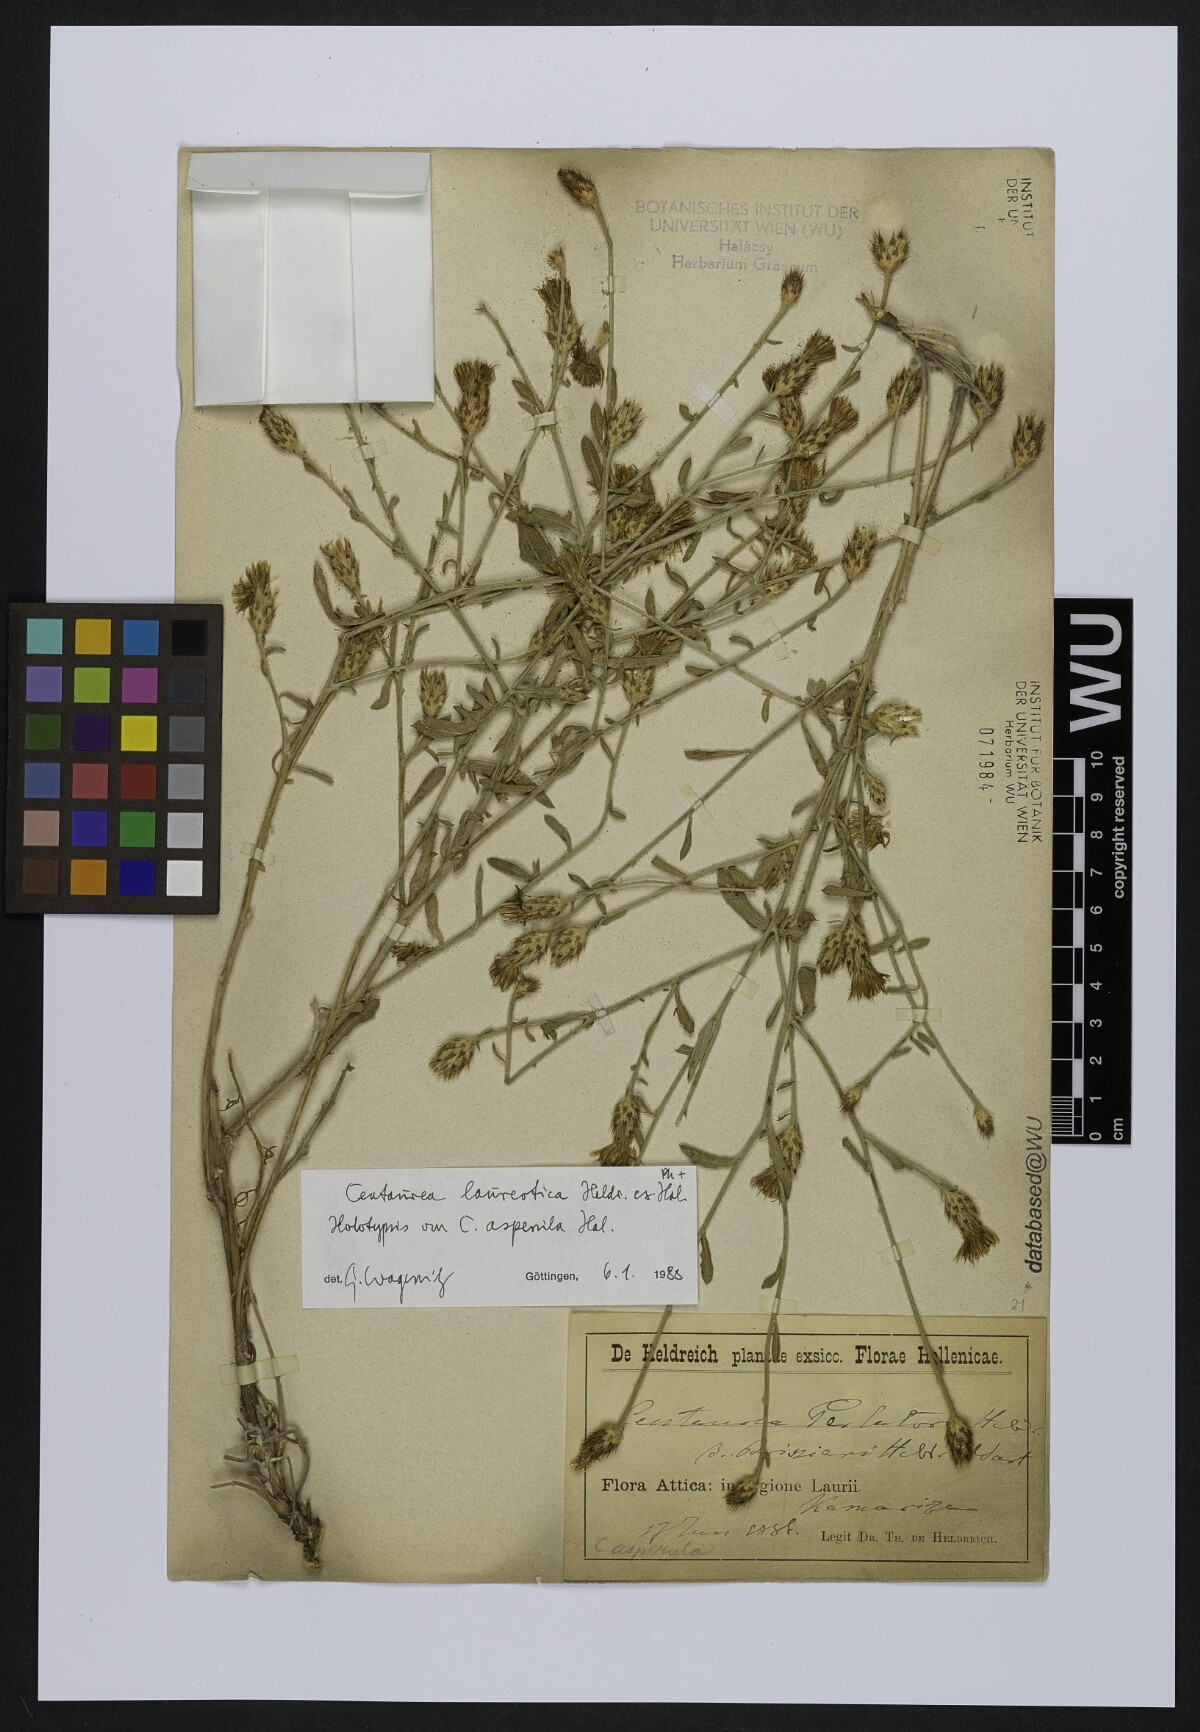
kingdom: Plantae
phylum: Tracheophyta
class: Magnoliopsida
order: Asterales
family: Asteraceae
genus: Centaurea
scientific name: Centaurea attica
